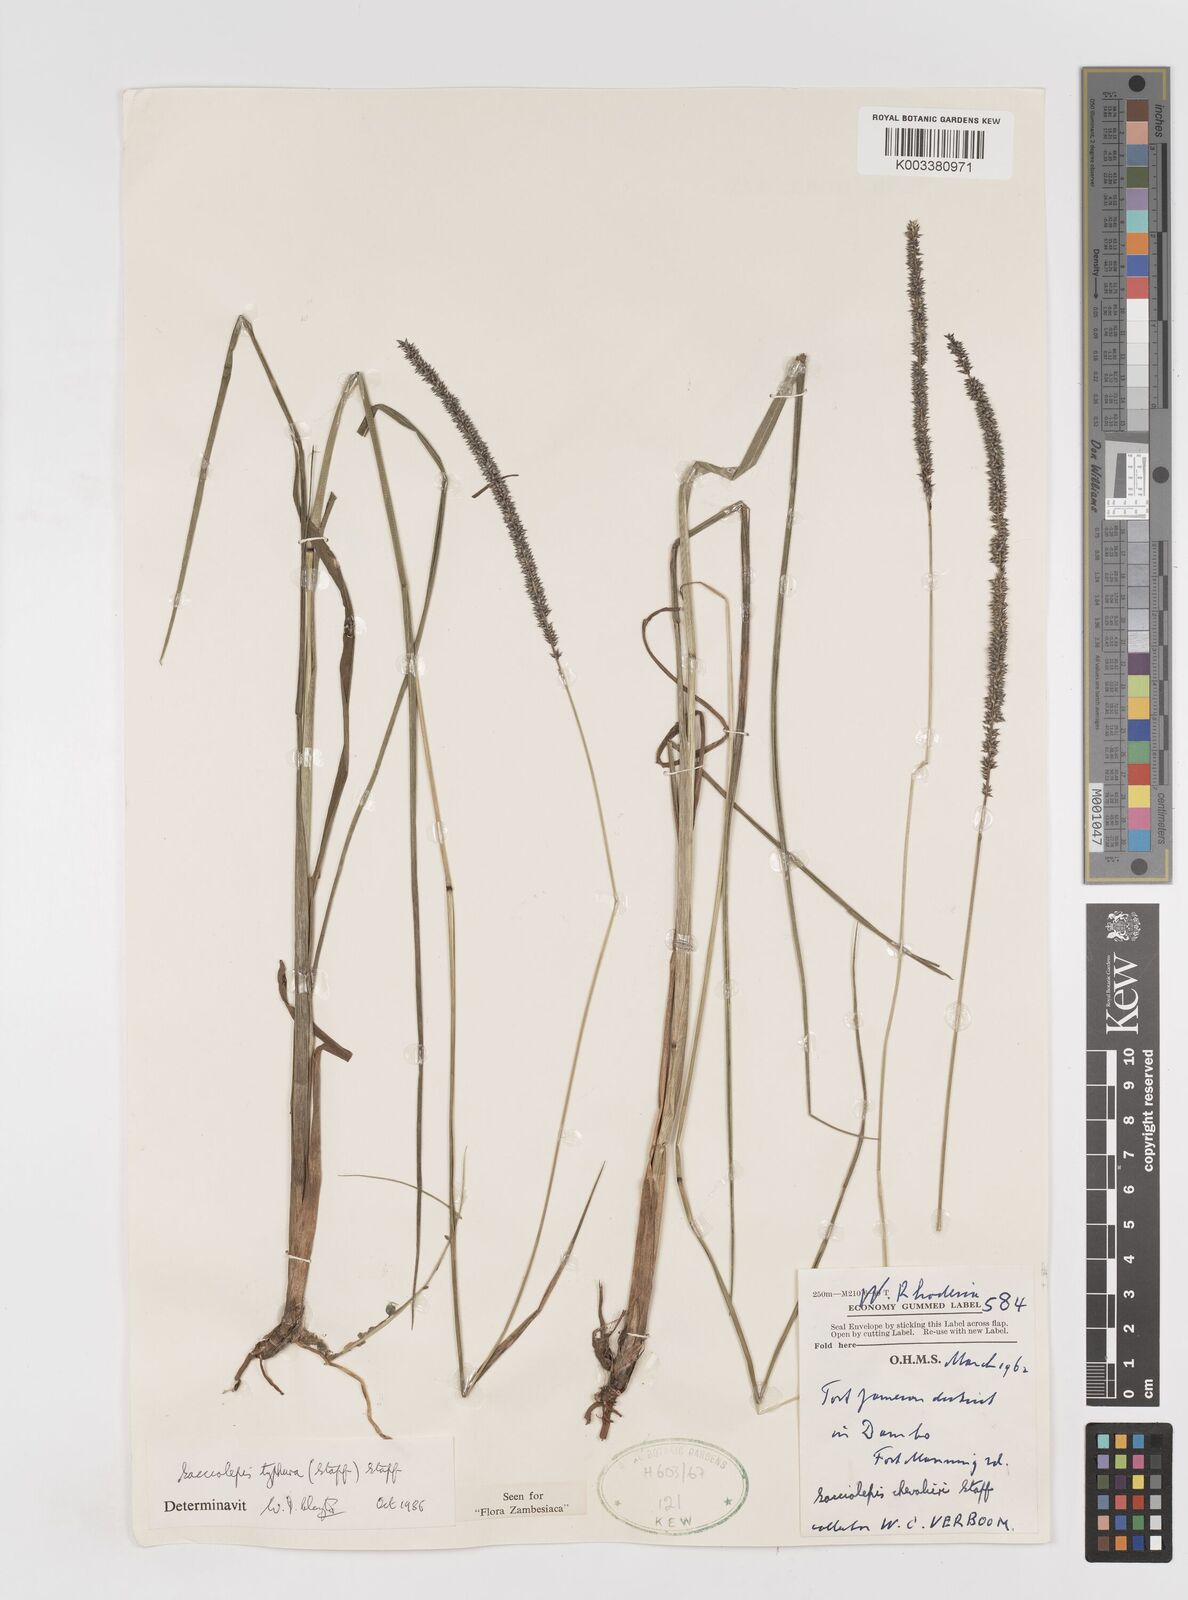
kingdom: Plantae
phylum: Tracheophyta
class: Liliopsida
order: Poales
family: Poaceae
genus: Sacciolepis
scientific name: Sacciolepis typhura
